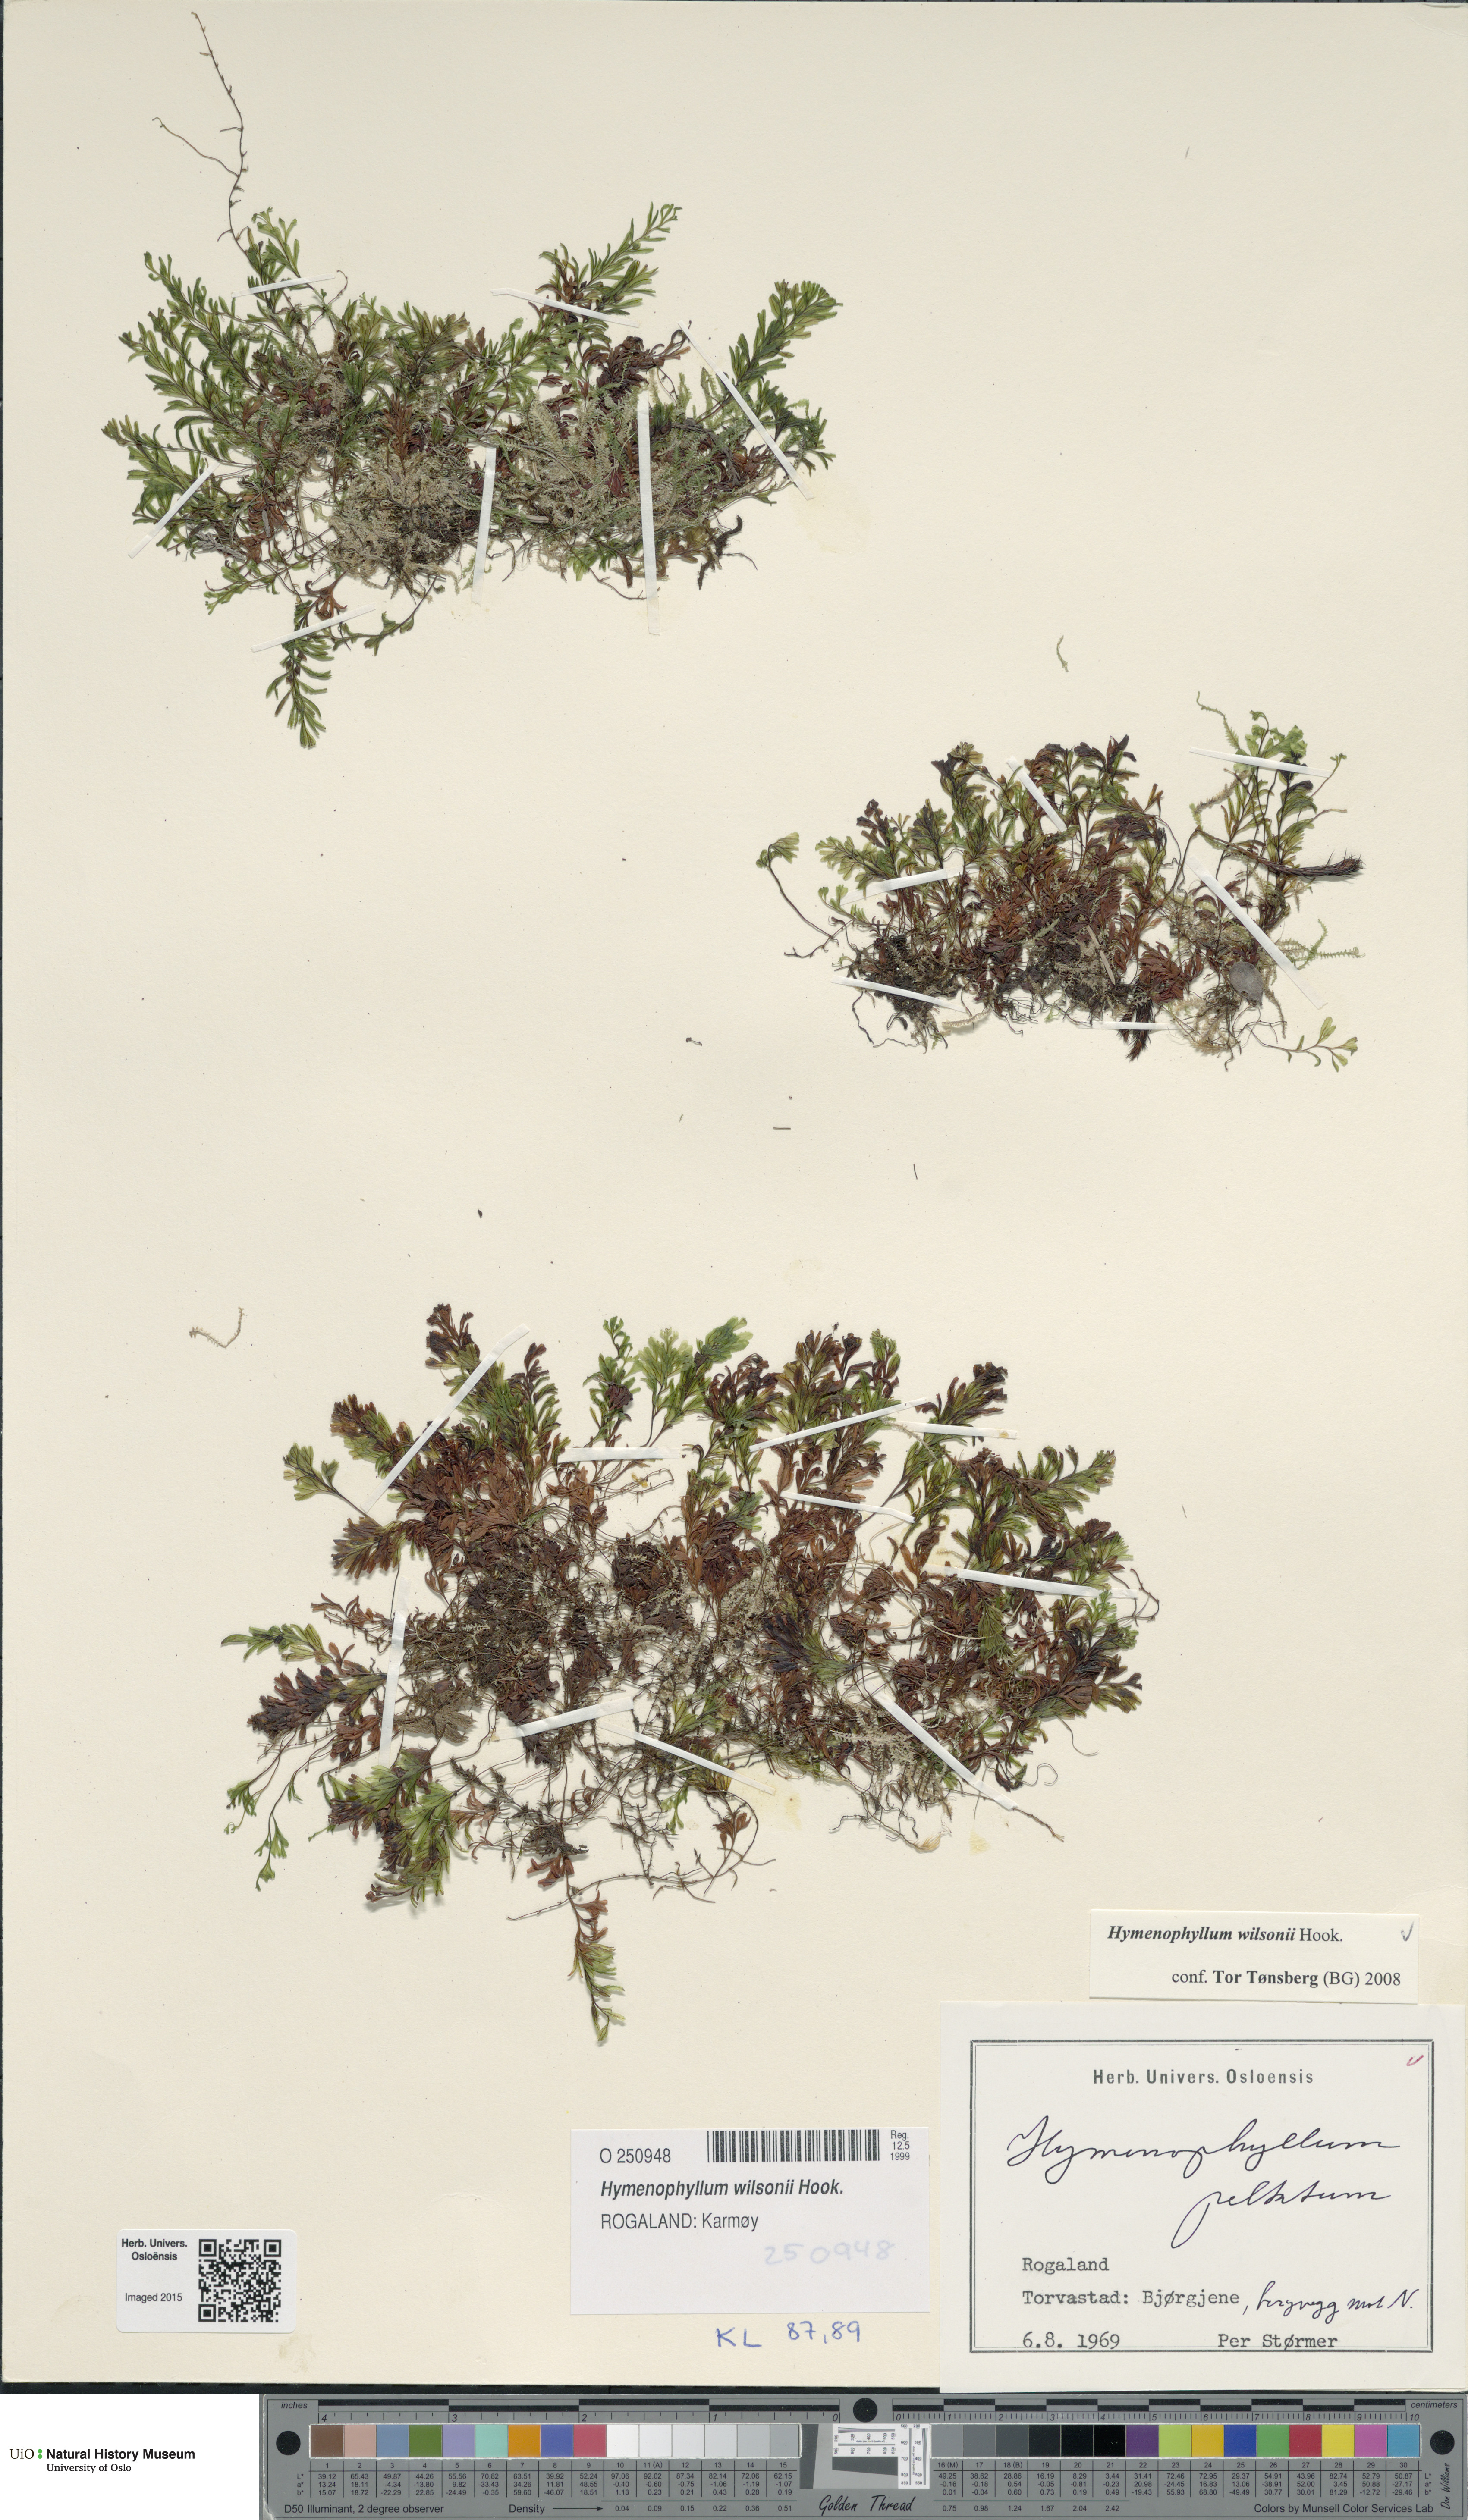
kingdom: Plantae
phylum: Tracheophyta
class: Polypodiopsida
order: Hymenophyllales
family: Hymenophyllaceae
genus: Hymenophyllum
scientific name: Hymenophyllum peltatum
